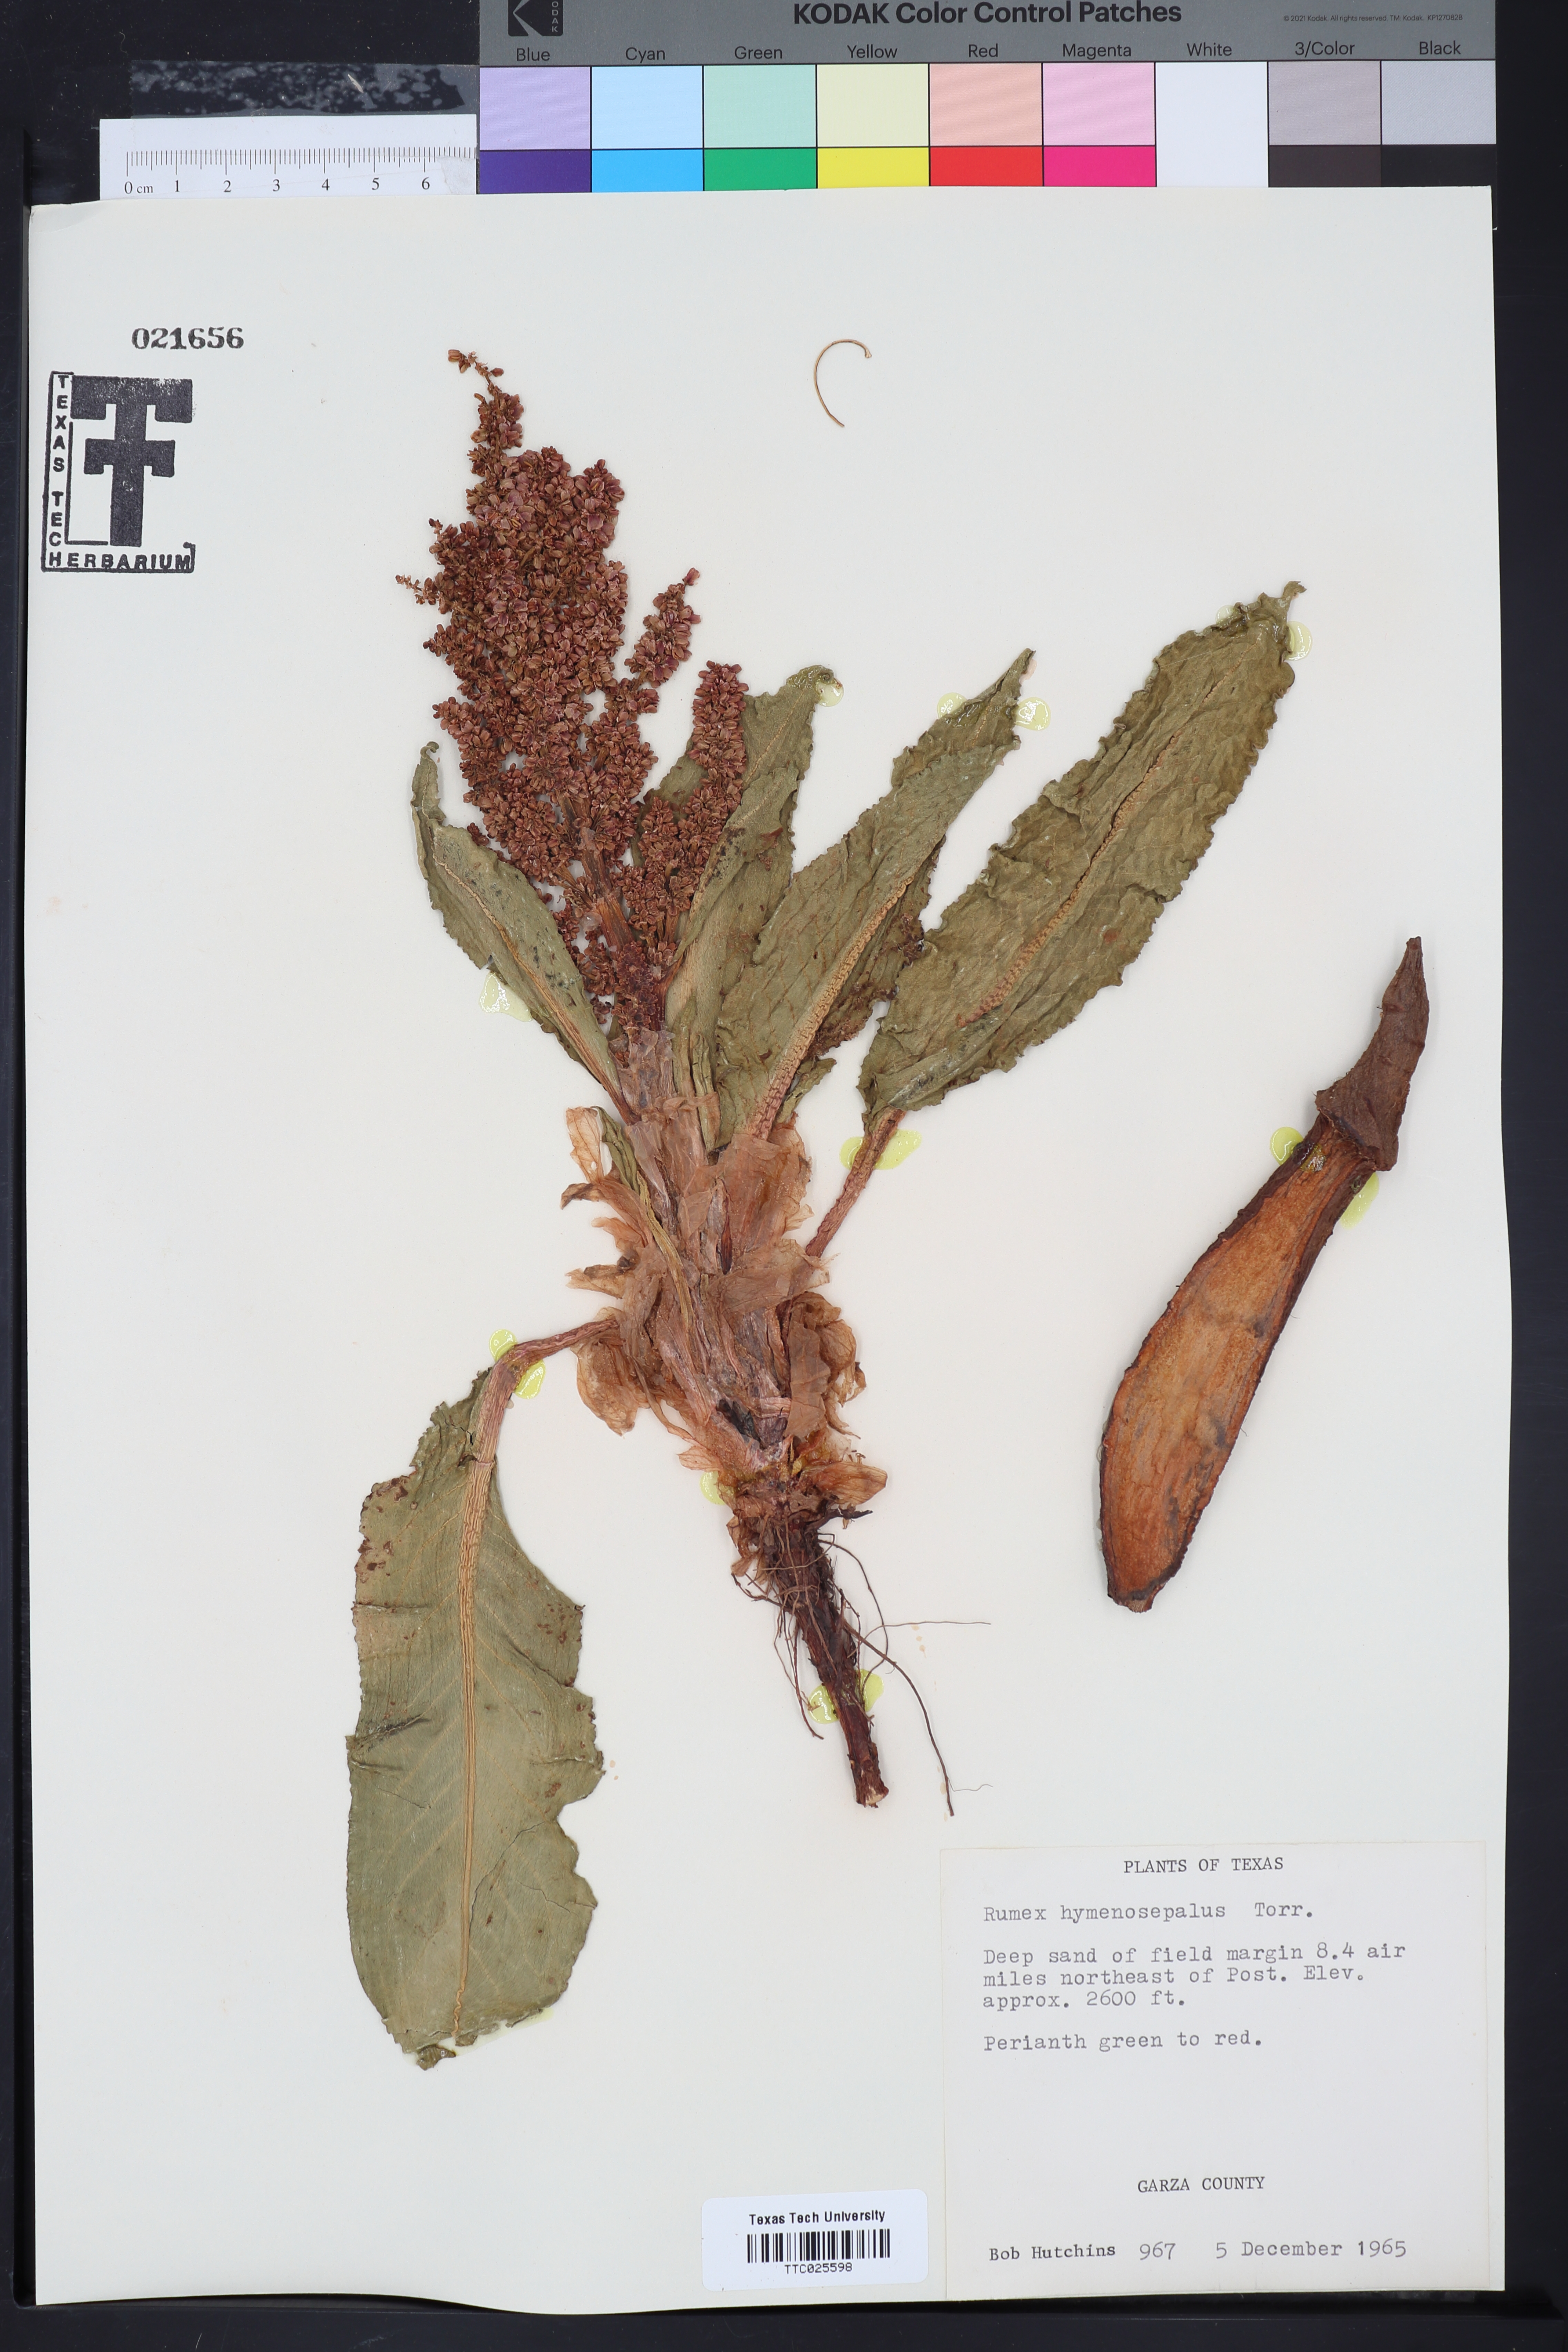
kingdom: Plantae
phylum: Tracheophyta
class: Magnoliopsida
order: Caryophyllales
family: Polygonaceae
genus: Rumex
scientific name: Rumex hymenosepalus
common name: Ganagra
